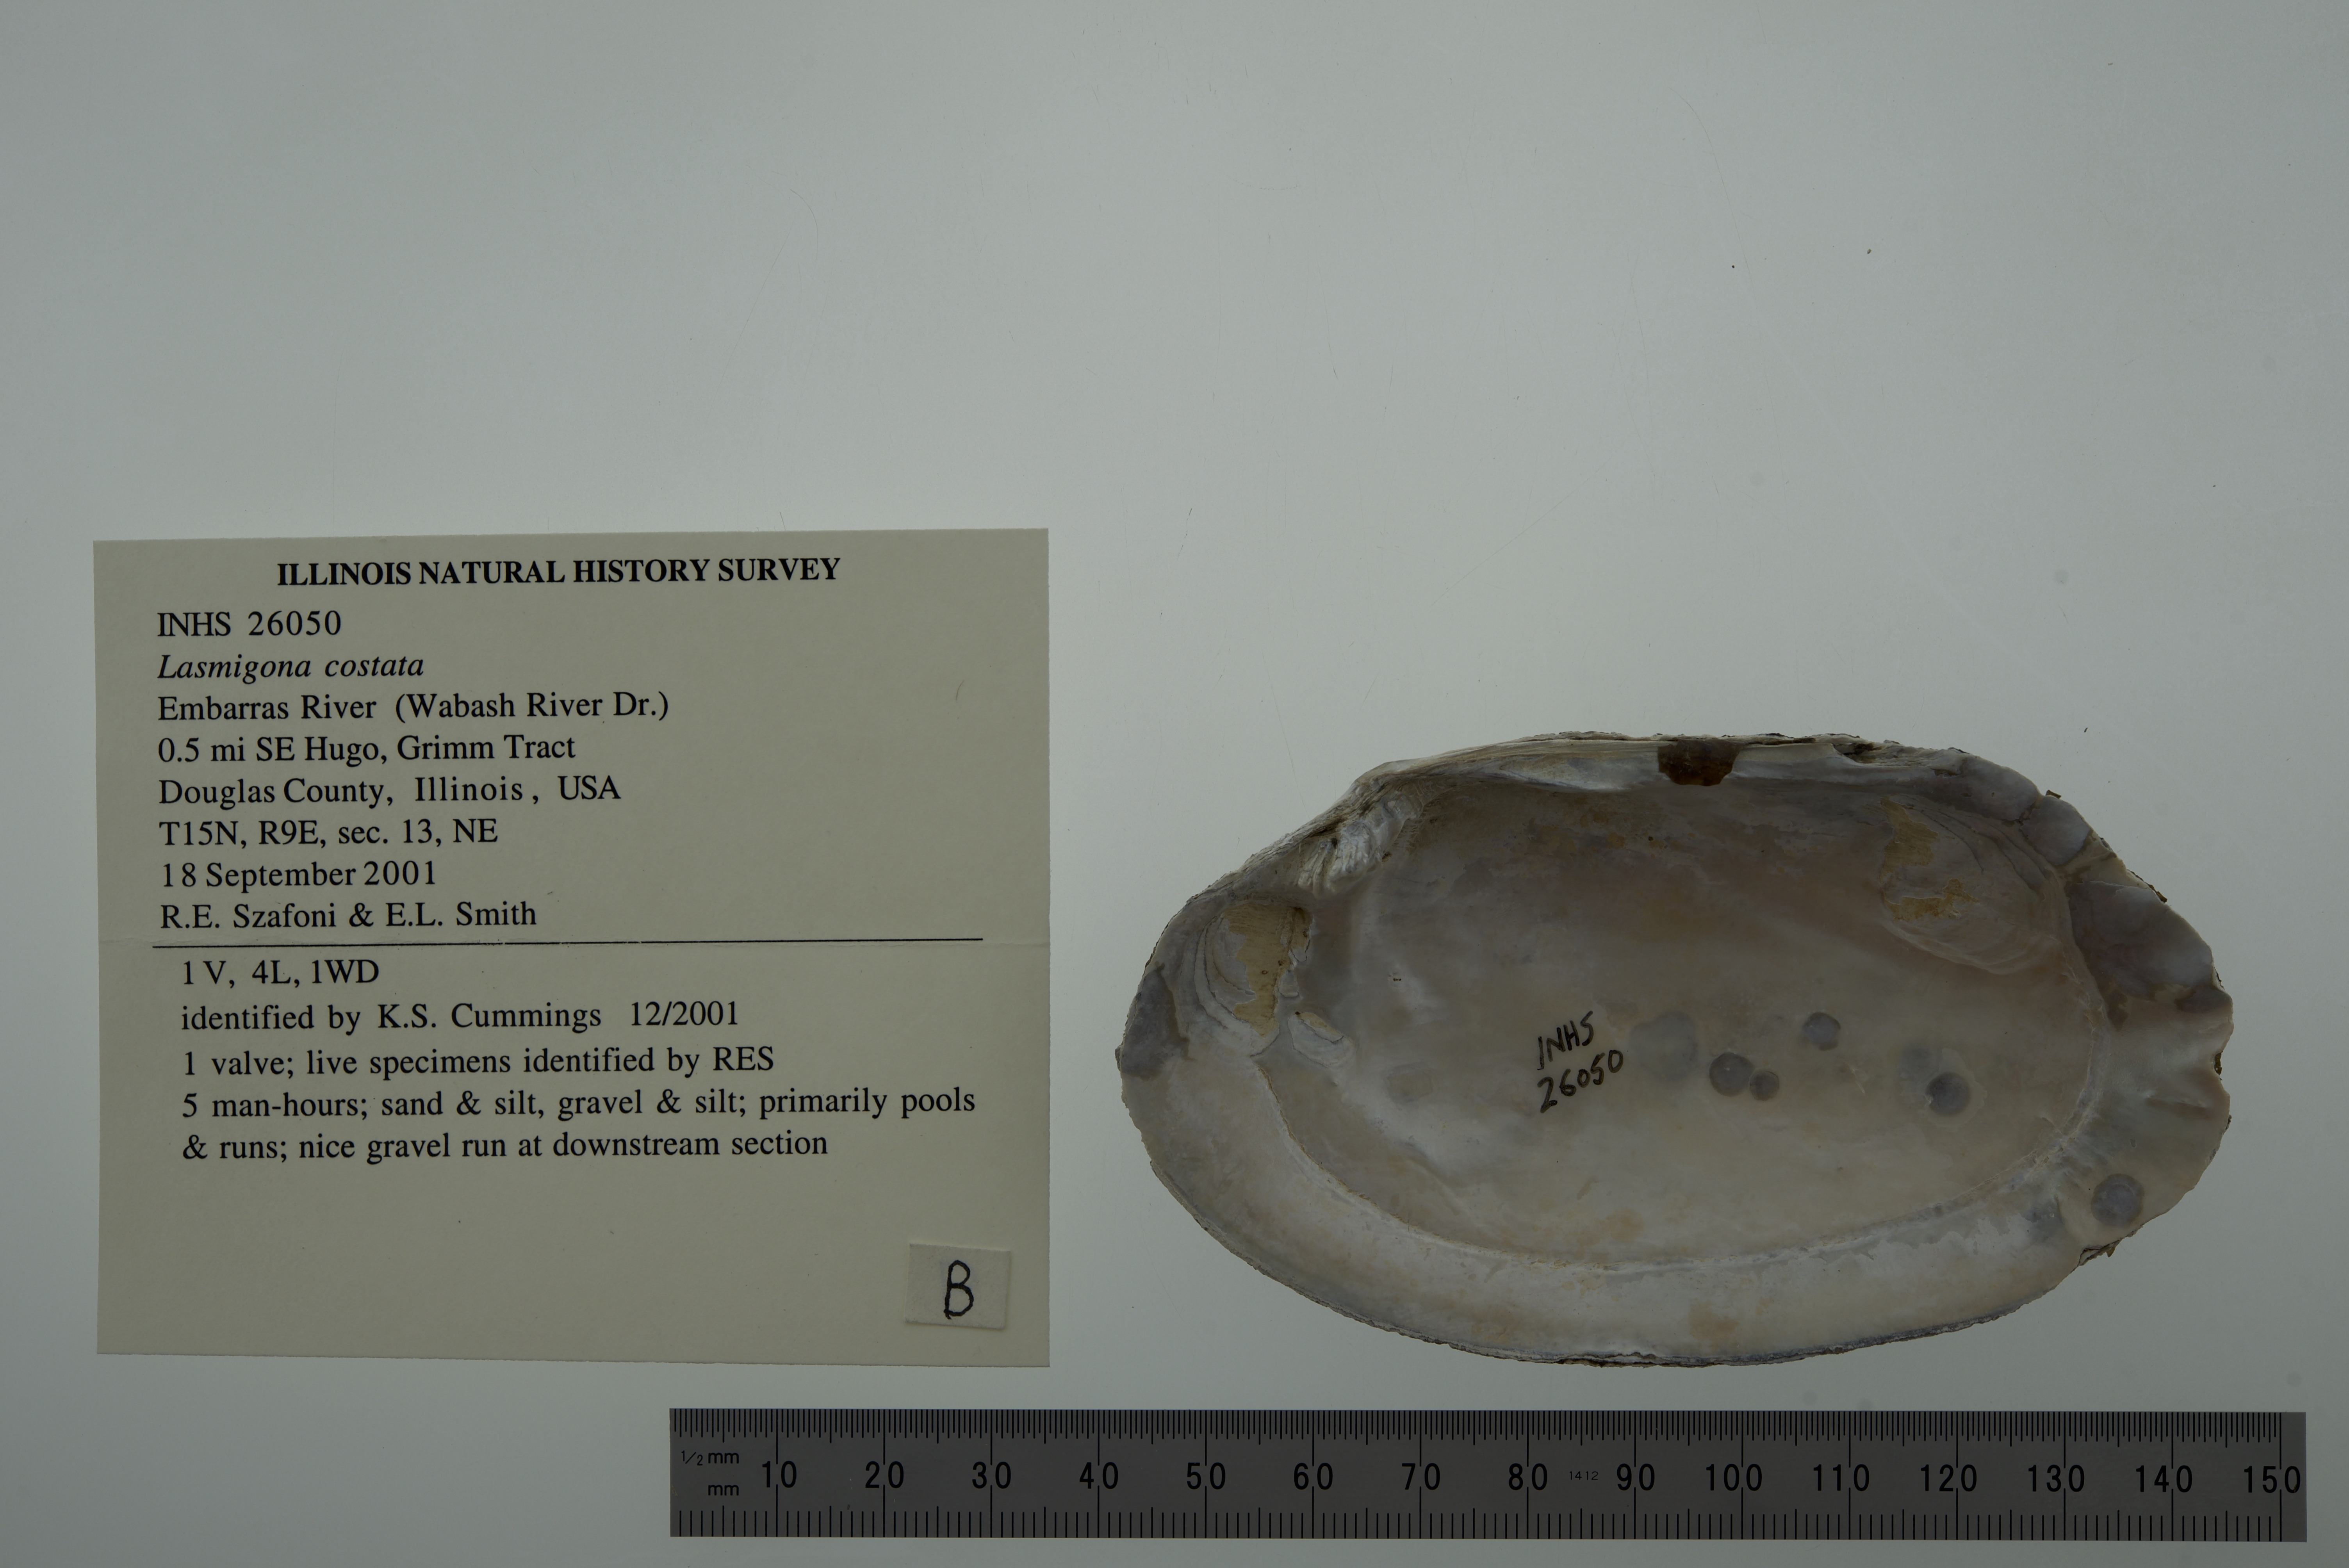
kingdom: Animalia
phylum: Mollusca
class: Bivalvia
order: Unionida
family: Unionidae
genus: Lasmigona
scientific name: Lasmigona costata
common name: Flutedshell
